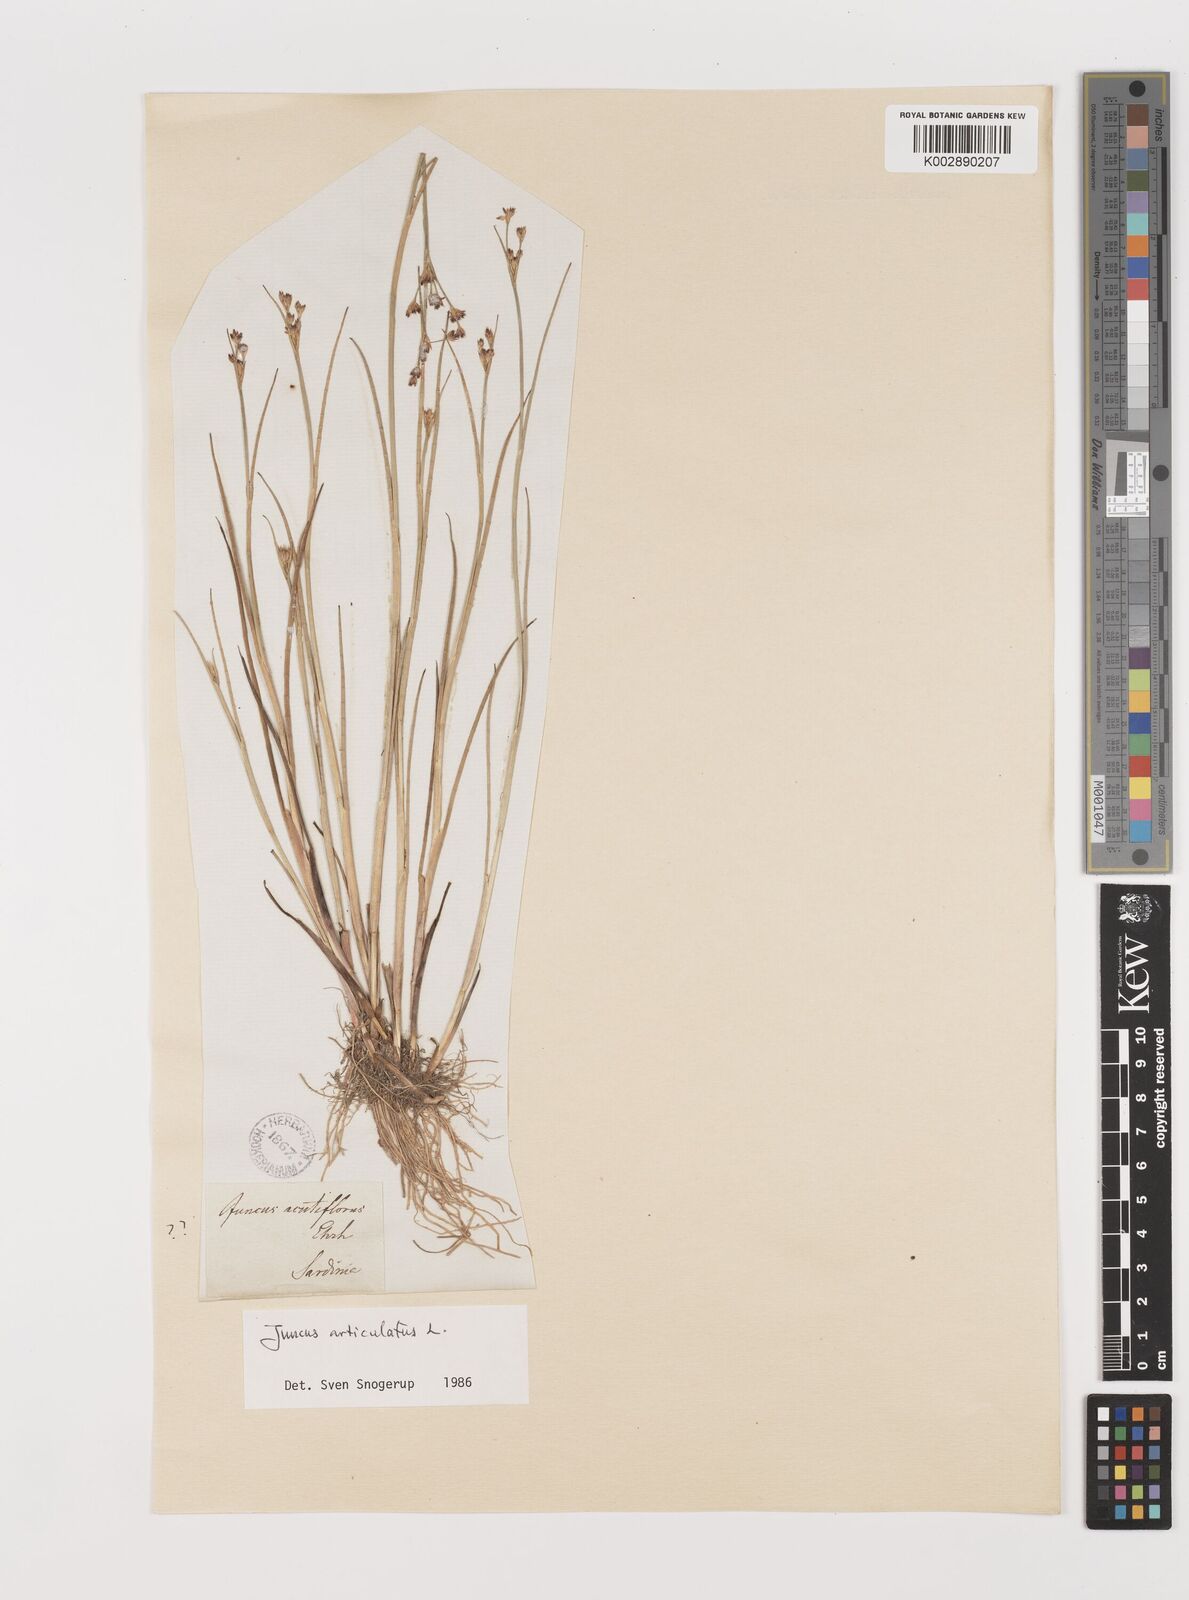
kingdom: Plantae
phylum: Tracheophyta
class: Liliopsida
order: Poales
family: Juncaceae
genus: Juncus
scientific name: Juncus articulatus
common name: Jointed rush
